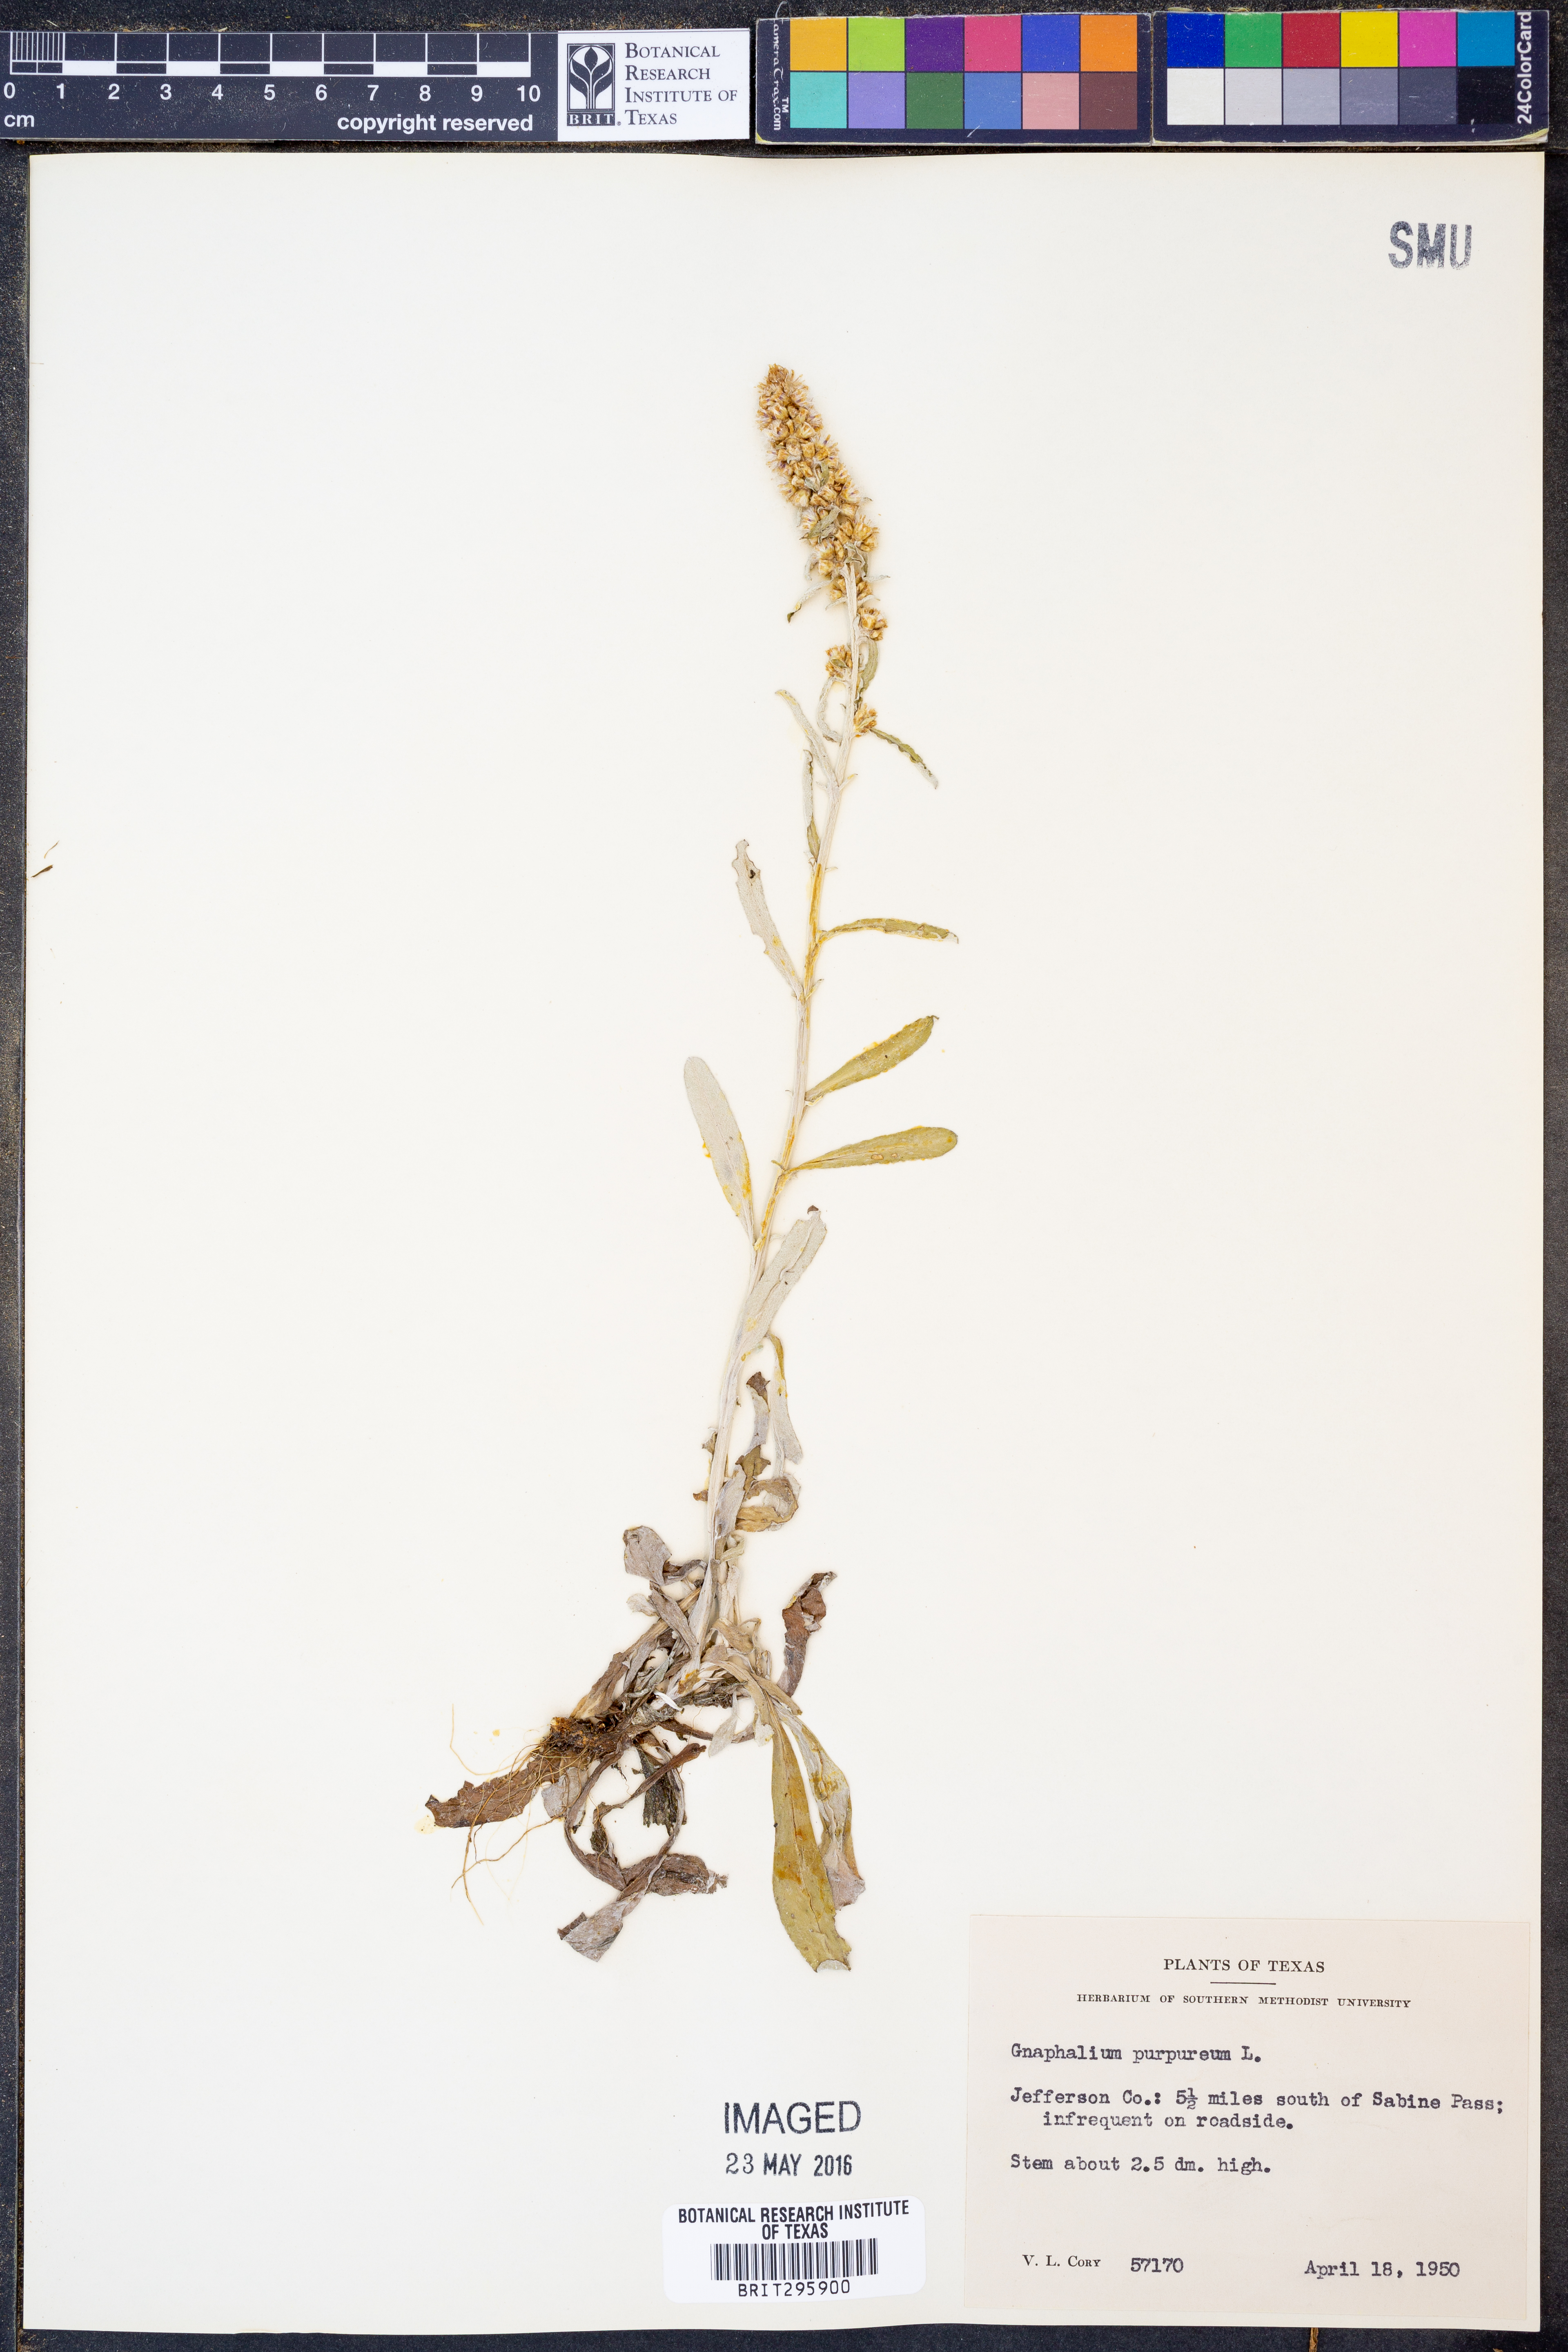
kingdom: Plantae
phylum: Tracheophyta
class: Magnoliopsida
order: Asterales
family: Asteraceae
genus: Gamochaeta
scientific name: Gamochaeta purpurea
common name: Purple cudweed
